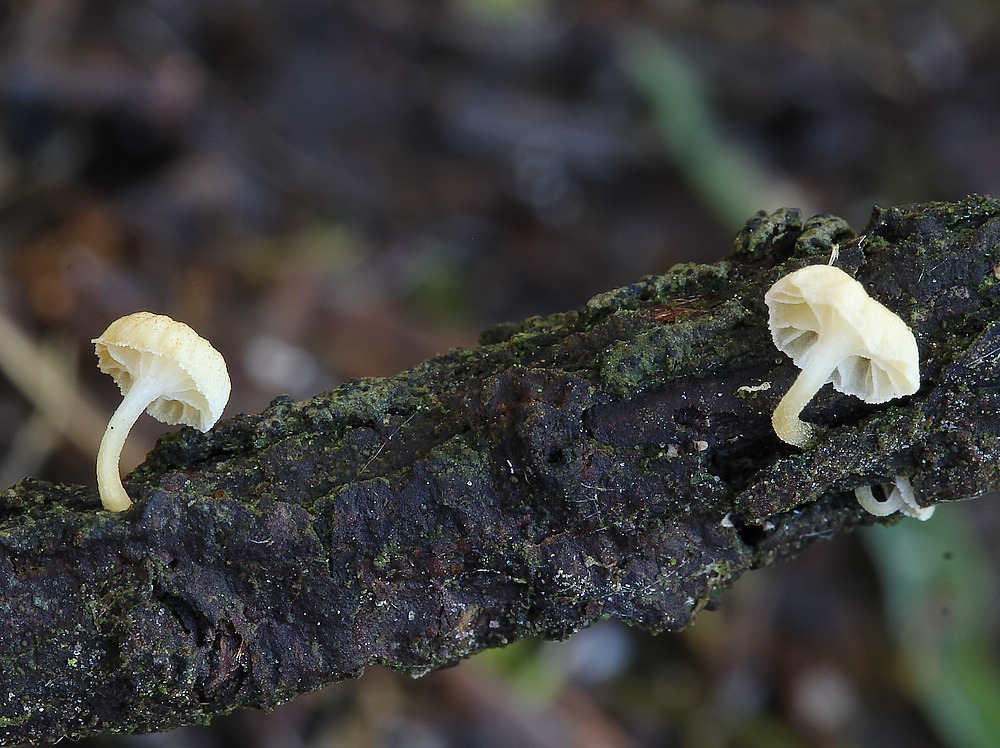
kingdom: Fungi
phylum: Basidiomycota
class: Agaricomycetes
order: Agaricales
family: Mycenaceae
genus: Mycena
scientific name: Mycena juniperina
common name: ene-Huesvamp
